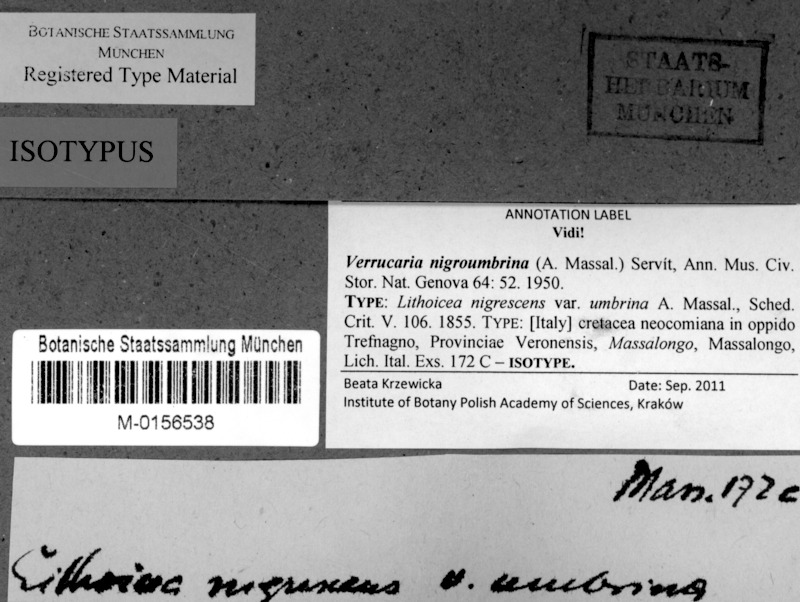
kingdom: Fungi
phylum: Ascomycota
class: Eurotiomycetes
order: Verrucariales
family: Verrucariaceae
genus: Verrucaria
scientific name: Verrucaria nigroumbrina
